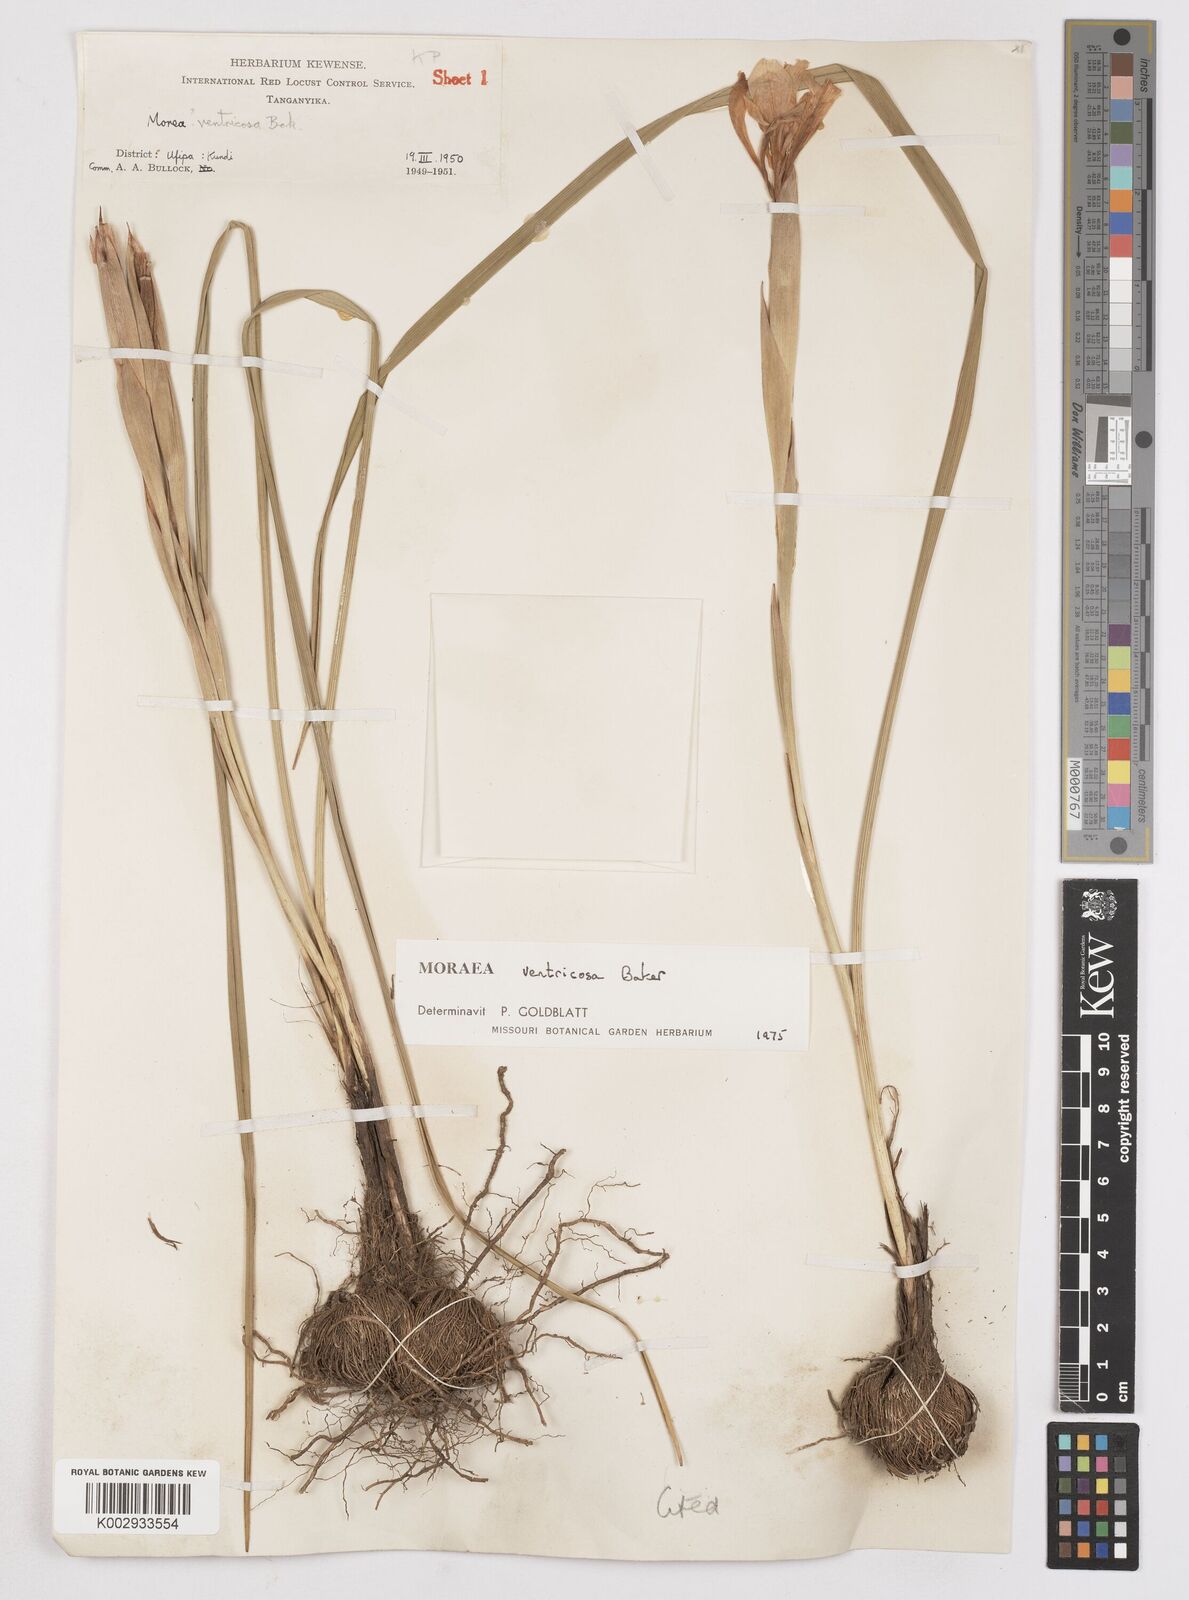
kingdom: Plantae
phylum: Tracheophyta
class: Liliopsida
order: Asparagales
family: Iridaceae
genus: Moraea
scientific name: Moraea ventricosa
